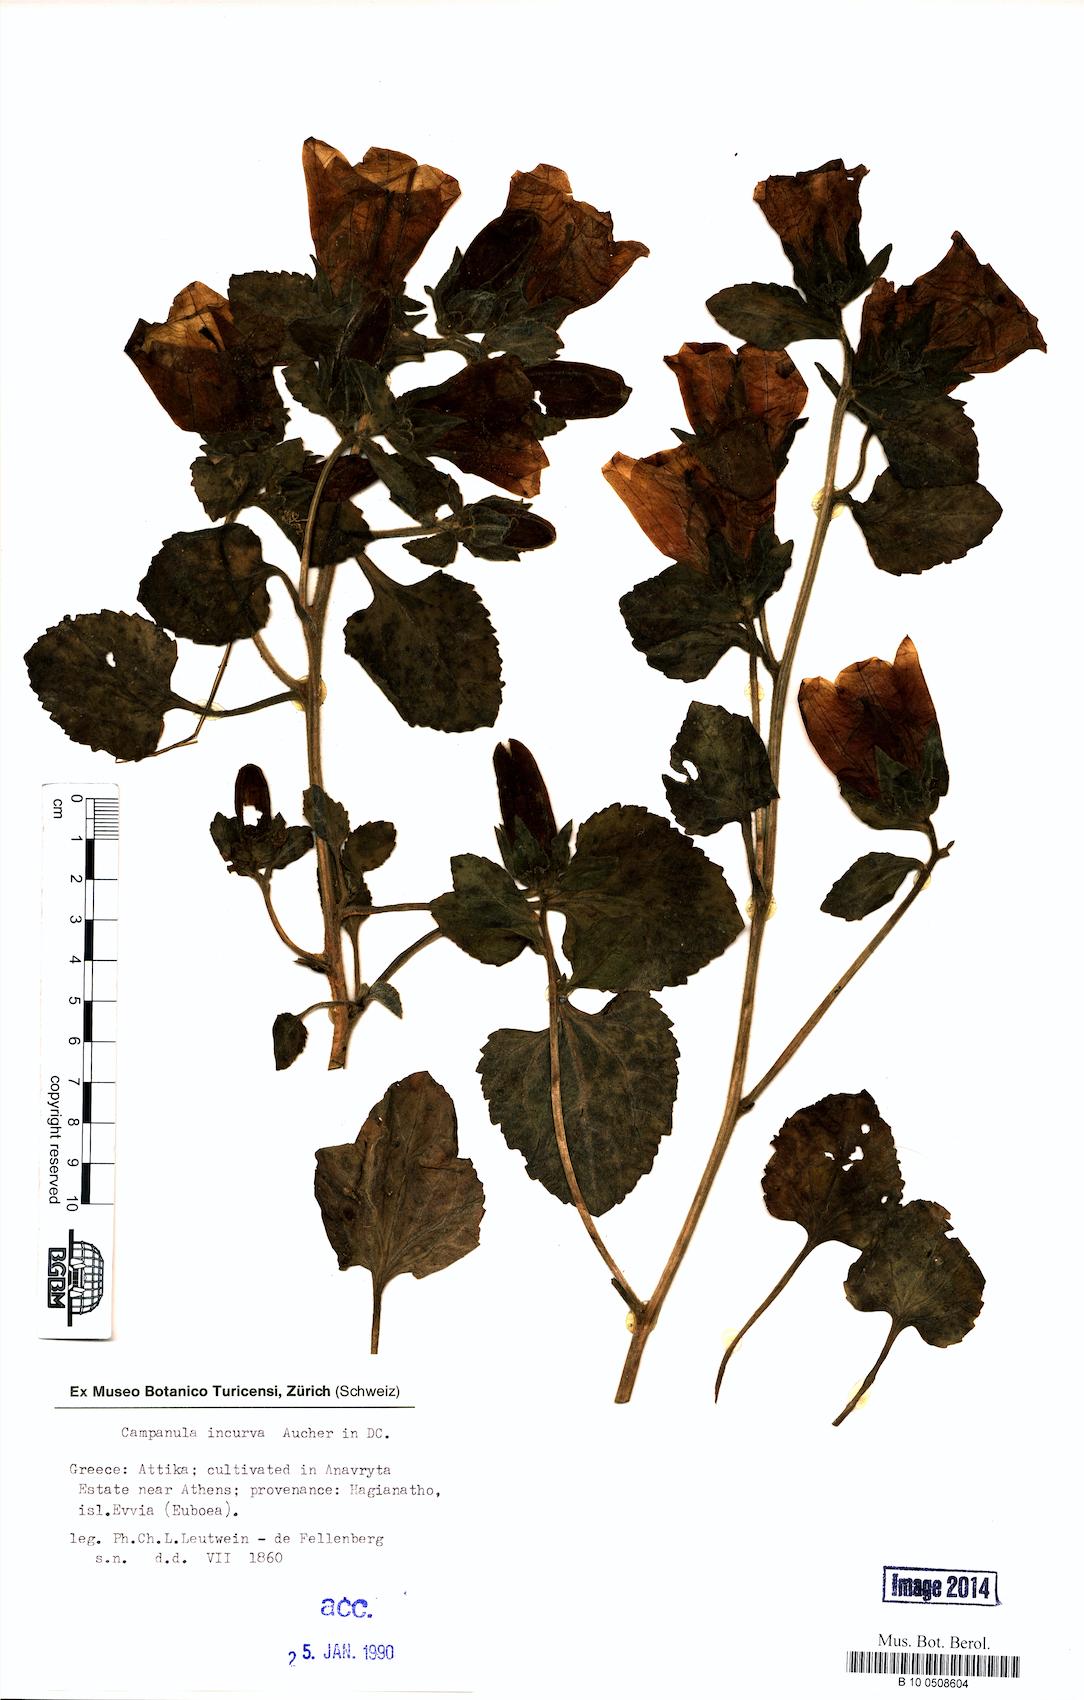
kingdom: Plantae
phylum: Tracheophyta
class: Magnoliopsida
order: Asterales
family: Campanulaceae
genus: Campanula
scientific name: Campanula incurva
